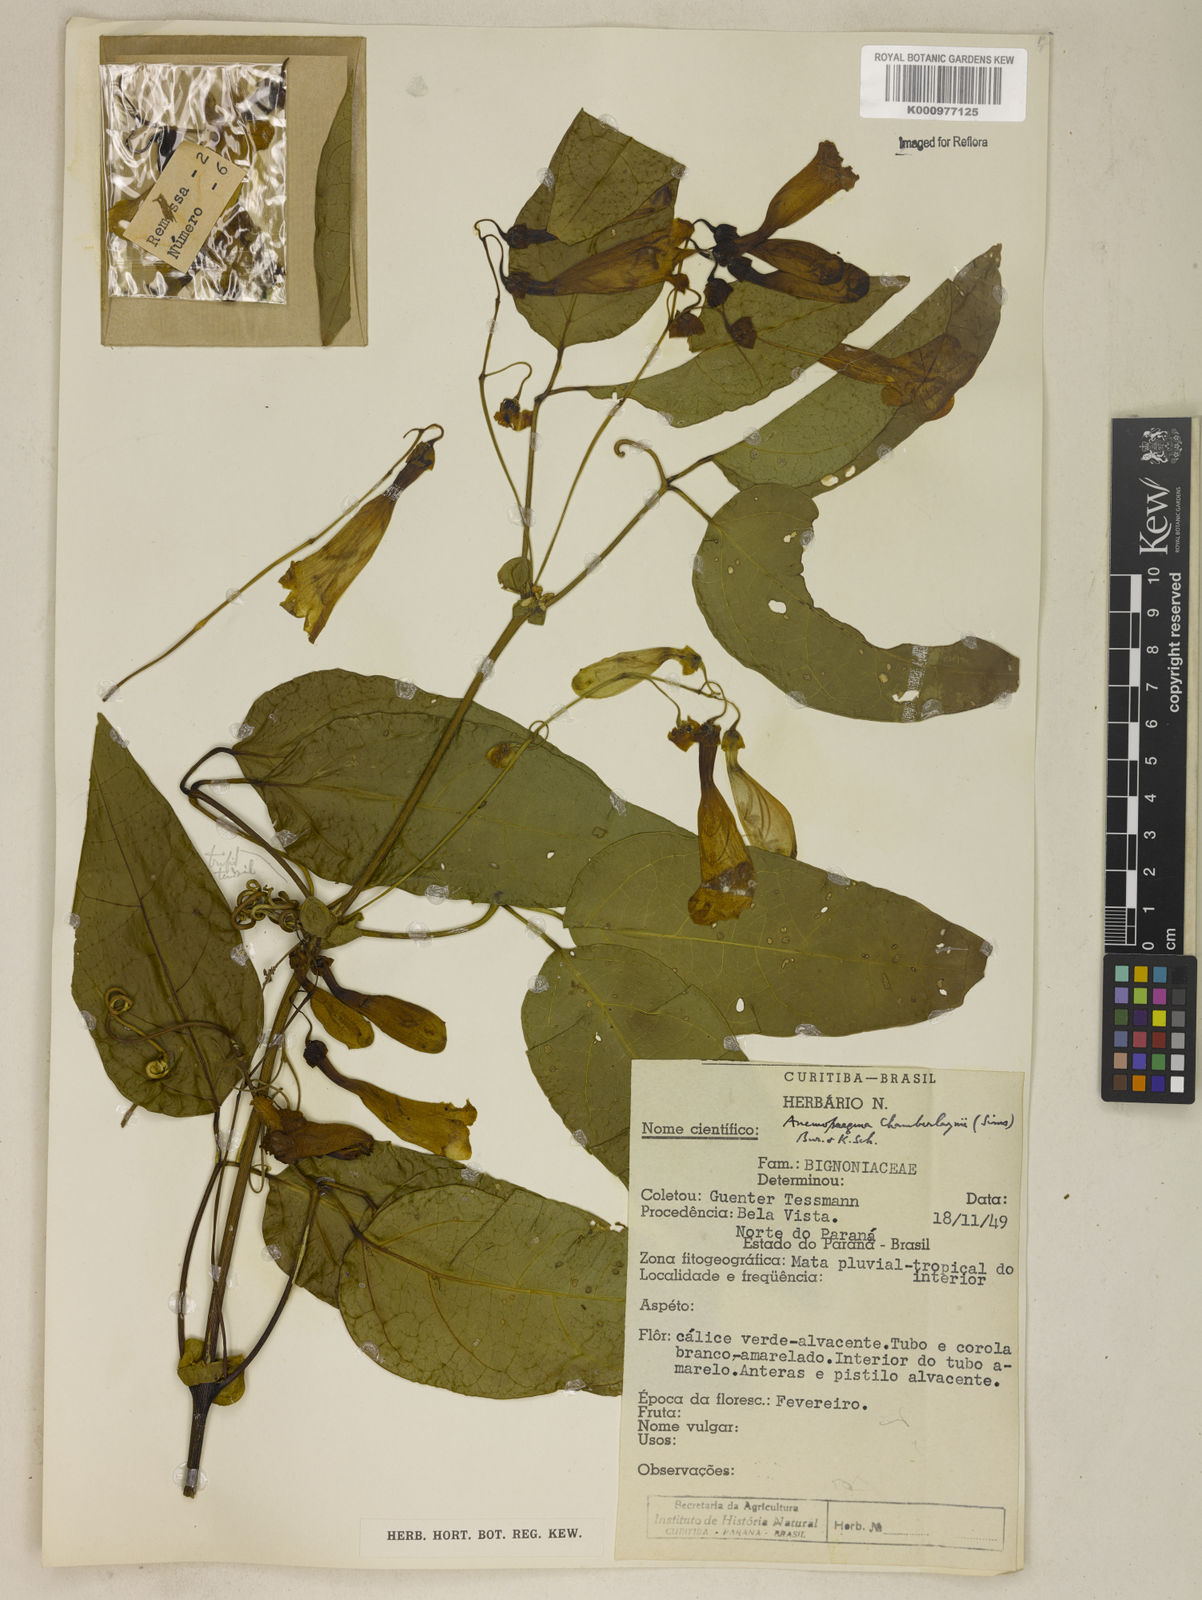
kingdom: Plantae
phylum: Tracheophyta
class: Magnoliopsida
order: Lamiales
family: Bignoniaceae
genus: Anemopaegma
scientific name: Anemopaegma chamberlaynii
